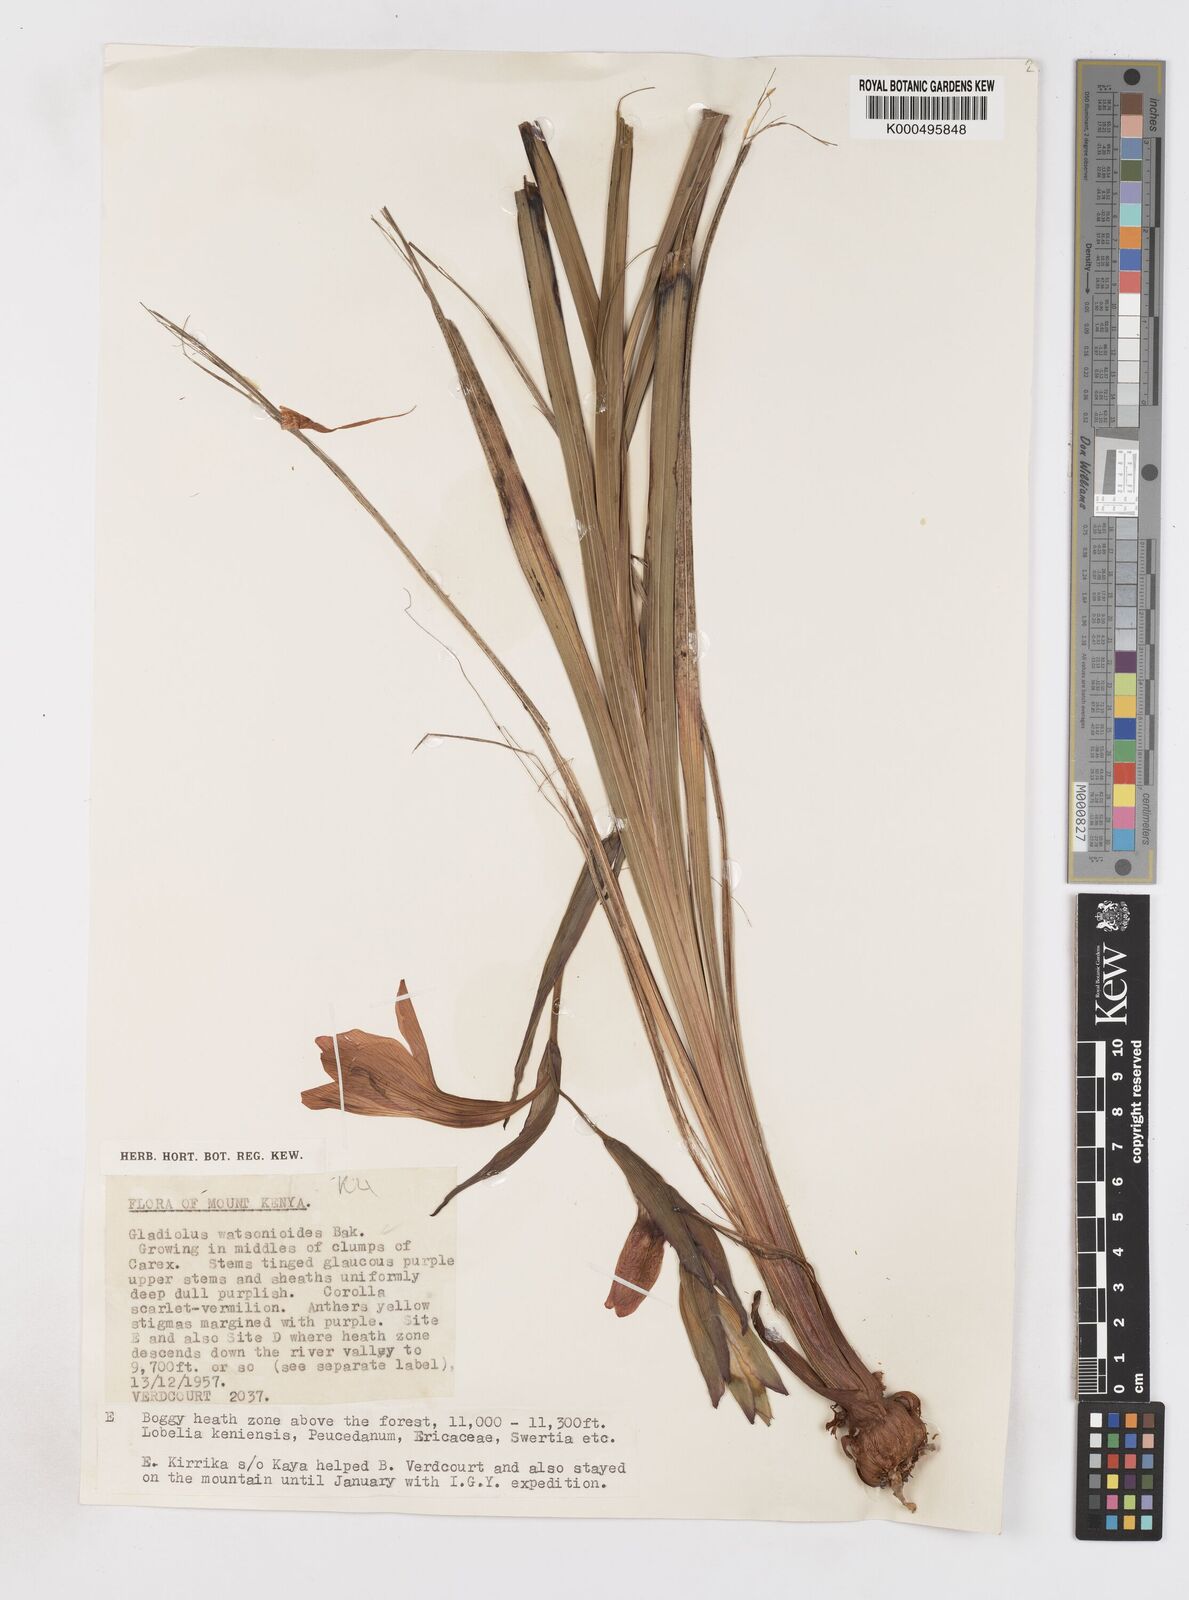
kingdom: Plantae
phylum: Tracheophyta
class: Liliopsida
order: Asparagales
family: Iridaceae
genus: Gladiolus
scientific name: Gladiolus watsonioides
